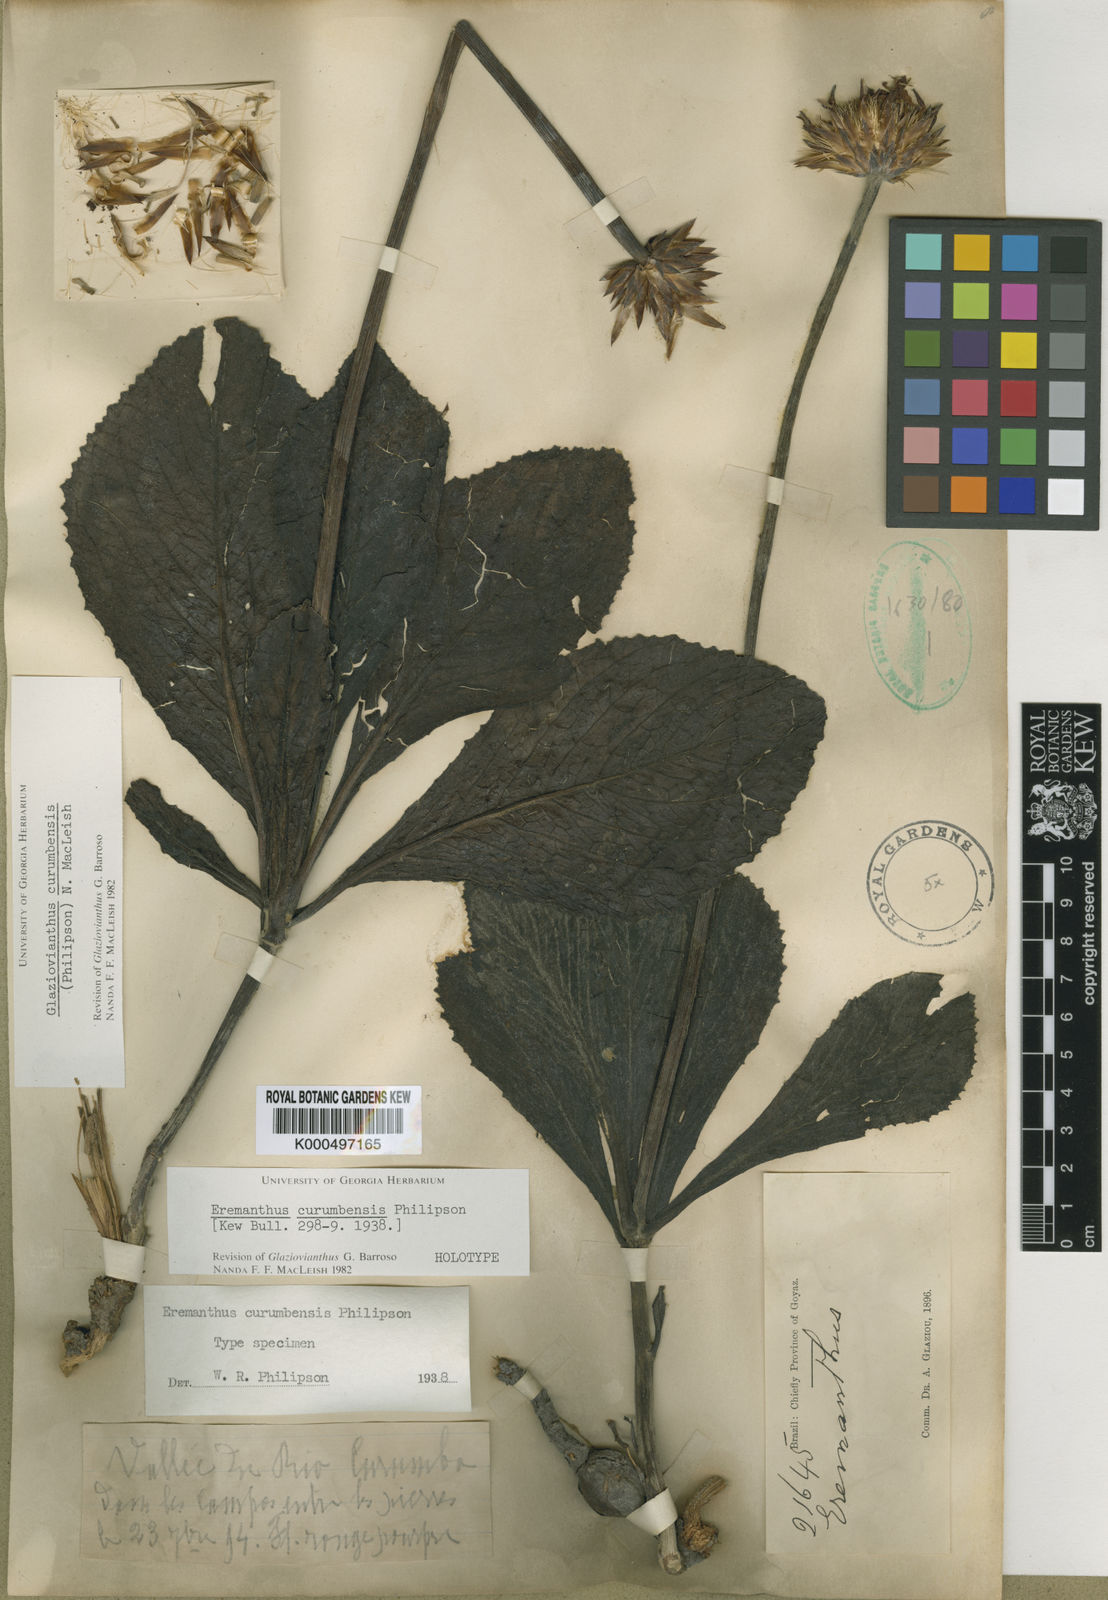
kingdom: Plantae
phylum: Tracheophyta
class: Magnoliopsida
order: Asterales
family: Asteraceae
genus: Chresta
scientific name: Chresta curumbensis
